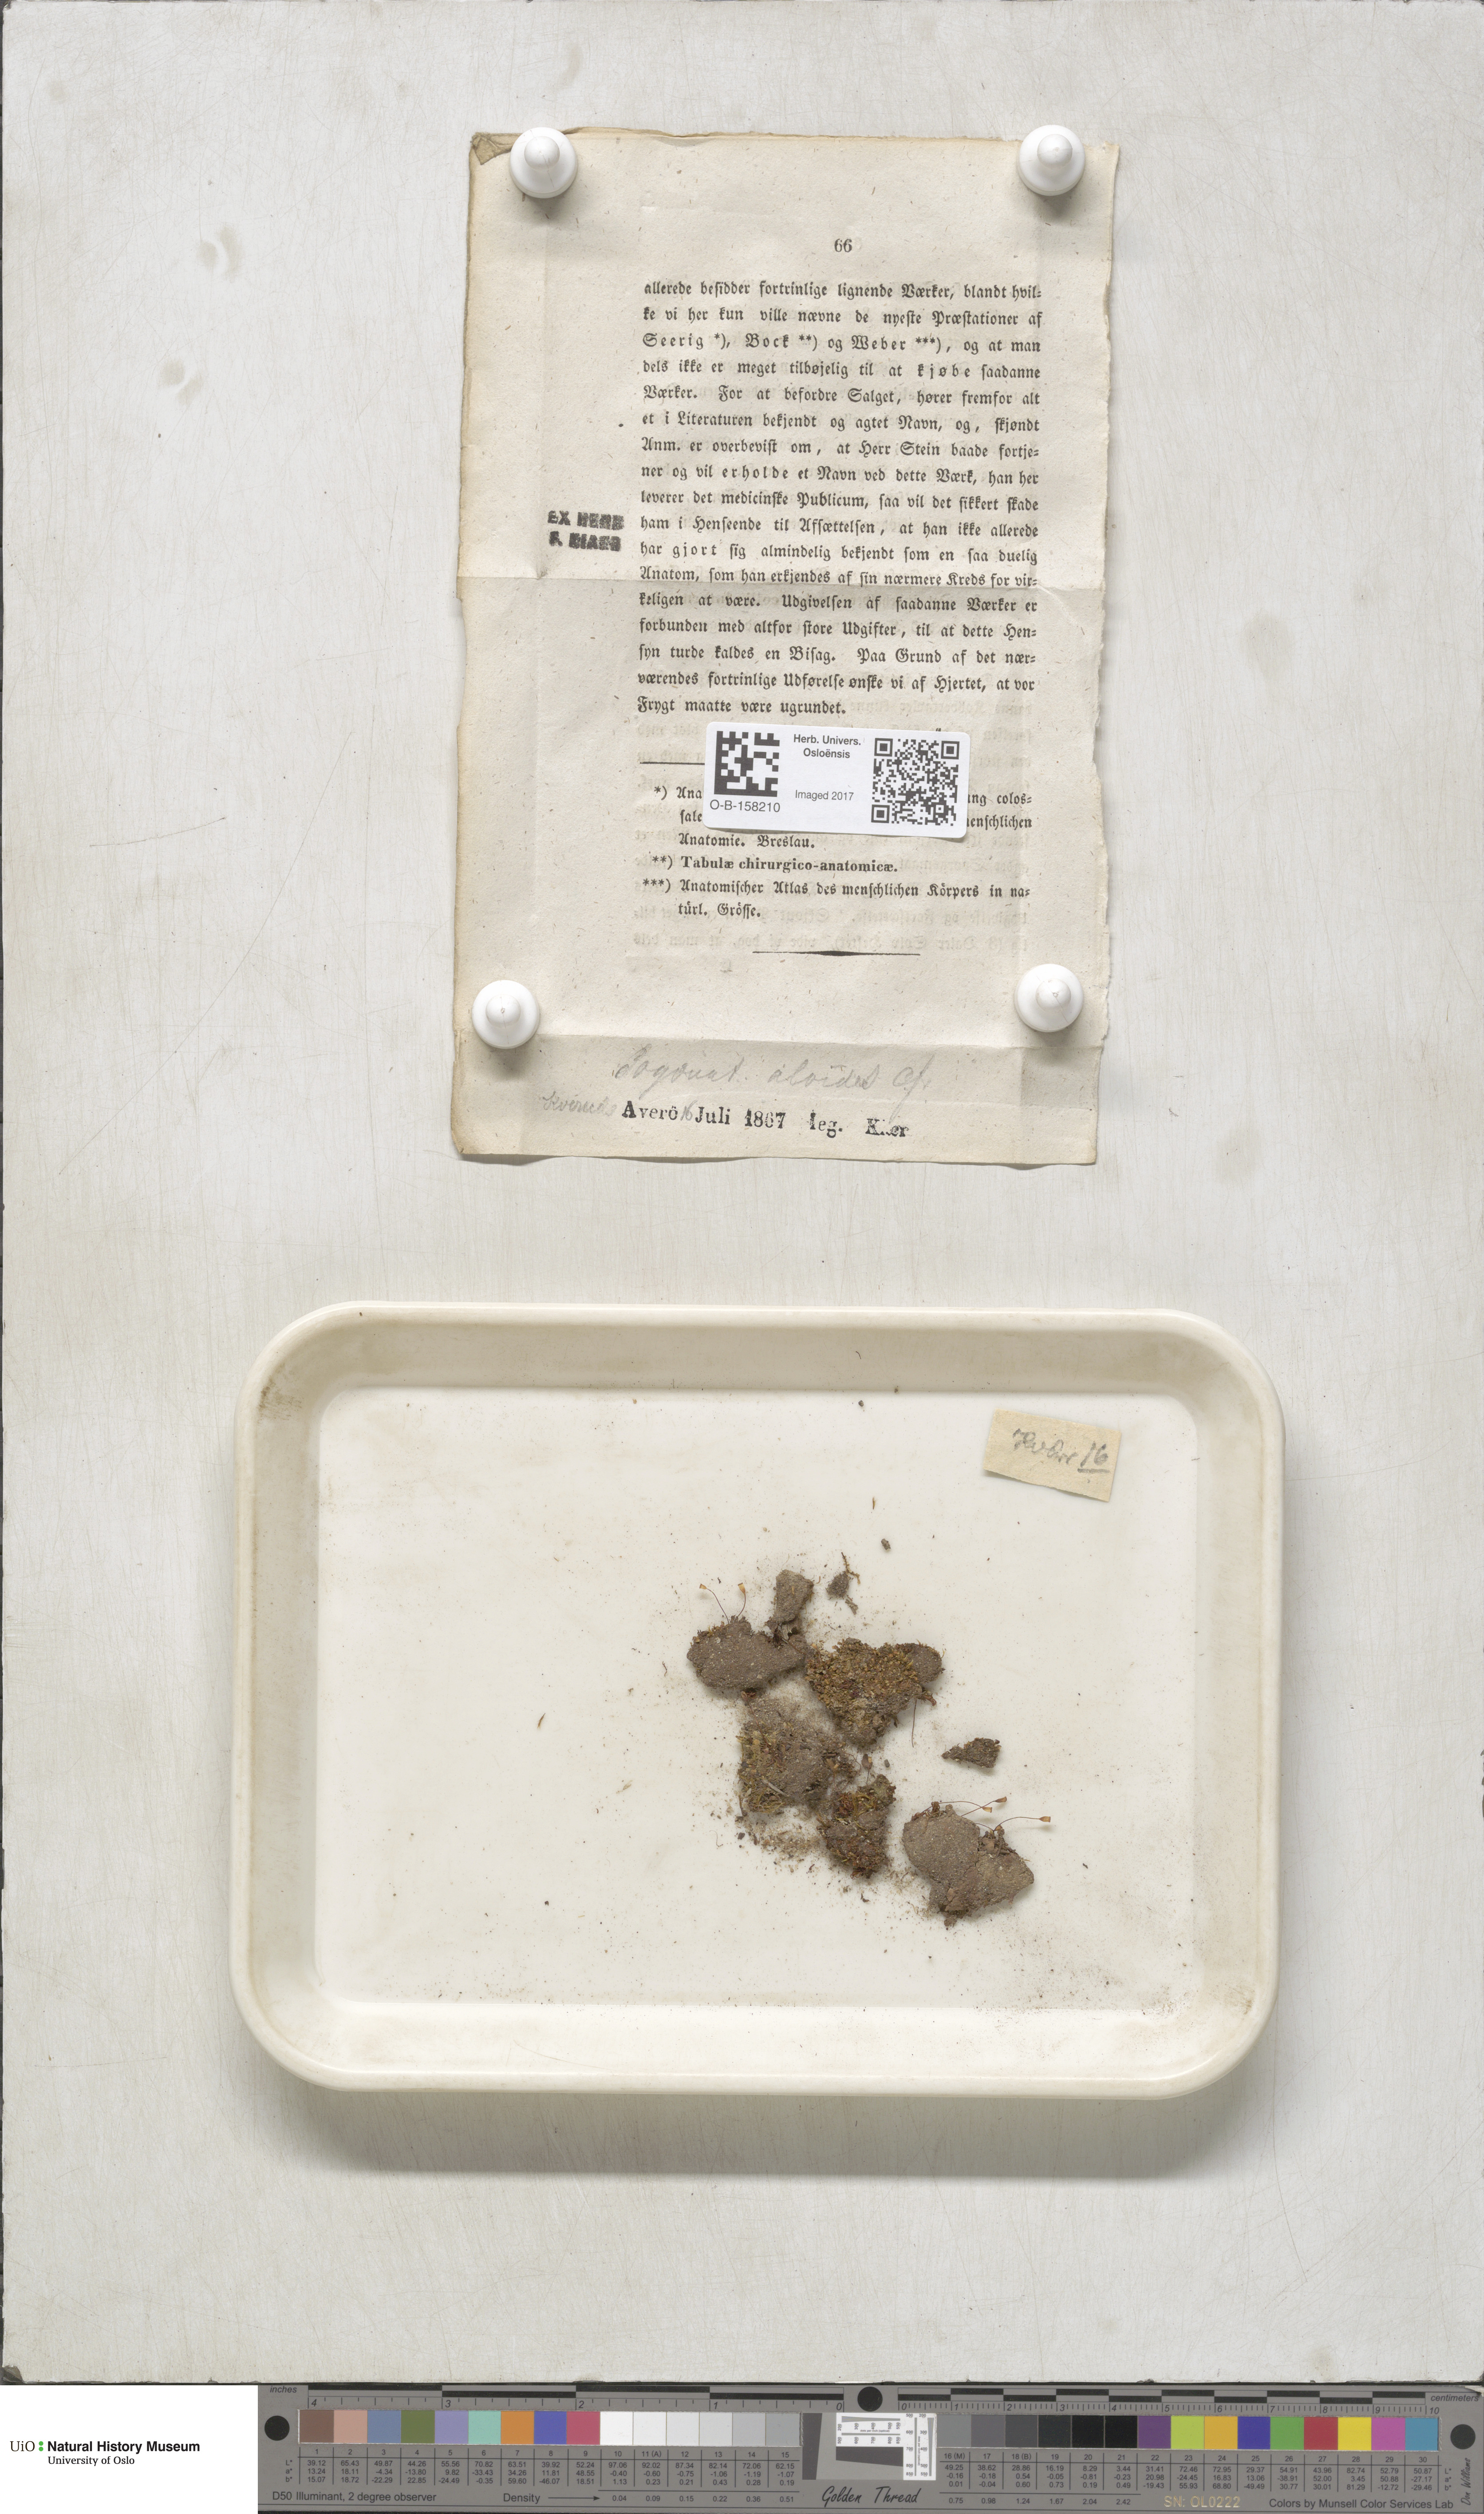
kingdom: Plantae
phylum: Bryophyta
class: Polytrichopsida
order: Polytrichales
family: Polytrichaceae
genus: Pogonatum
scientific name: Pogonatum aloides
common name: Aloe haircap
